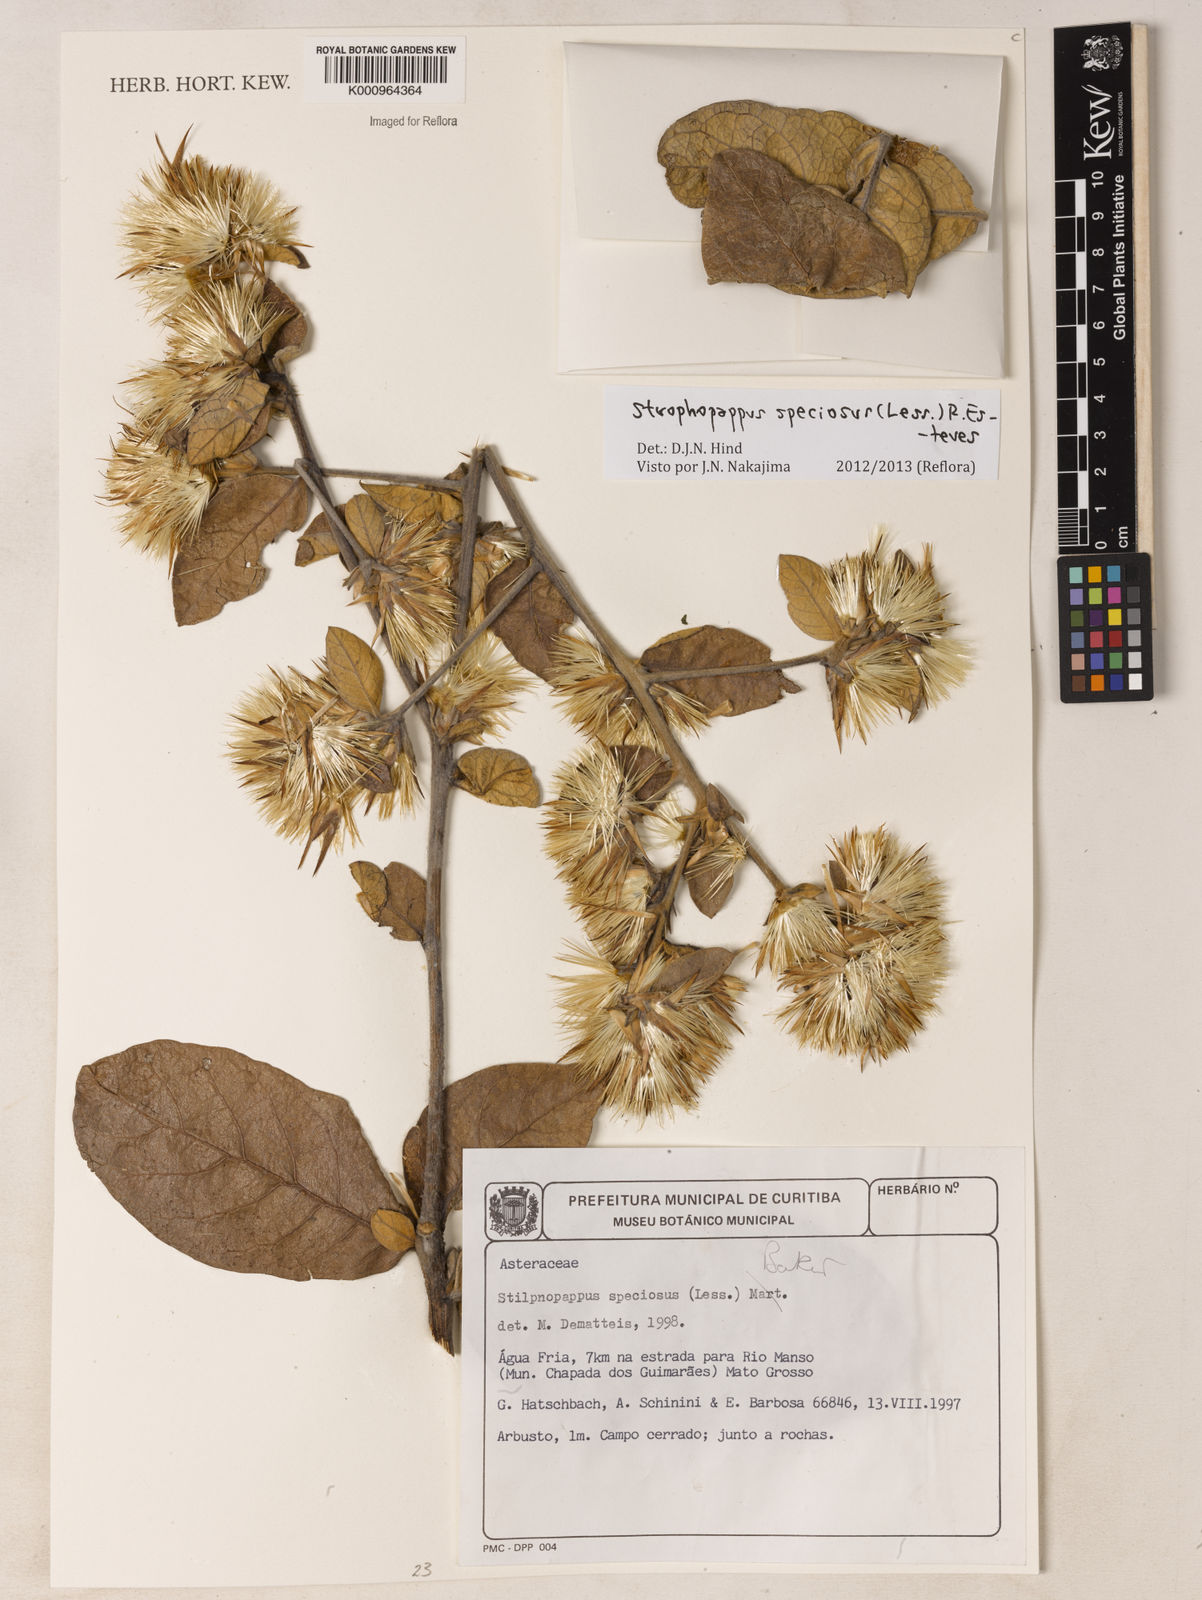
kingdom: Plantae
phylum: Tracheophyta
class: Magnoliopsida
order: Asterales
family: Asteraceae
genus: Stilpnopappus
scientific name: Stilpnopappus speciosus
